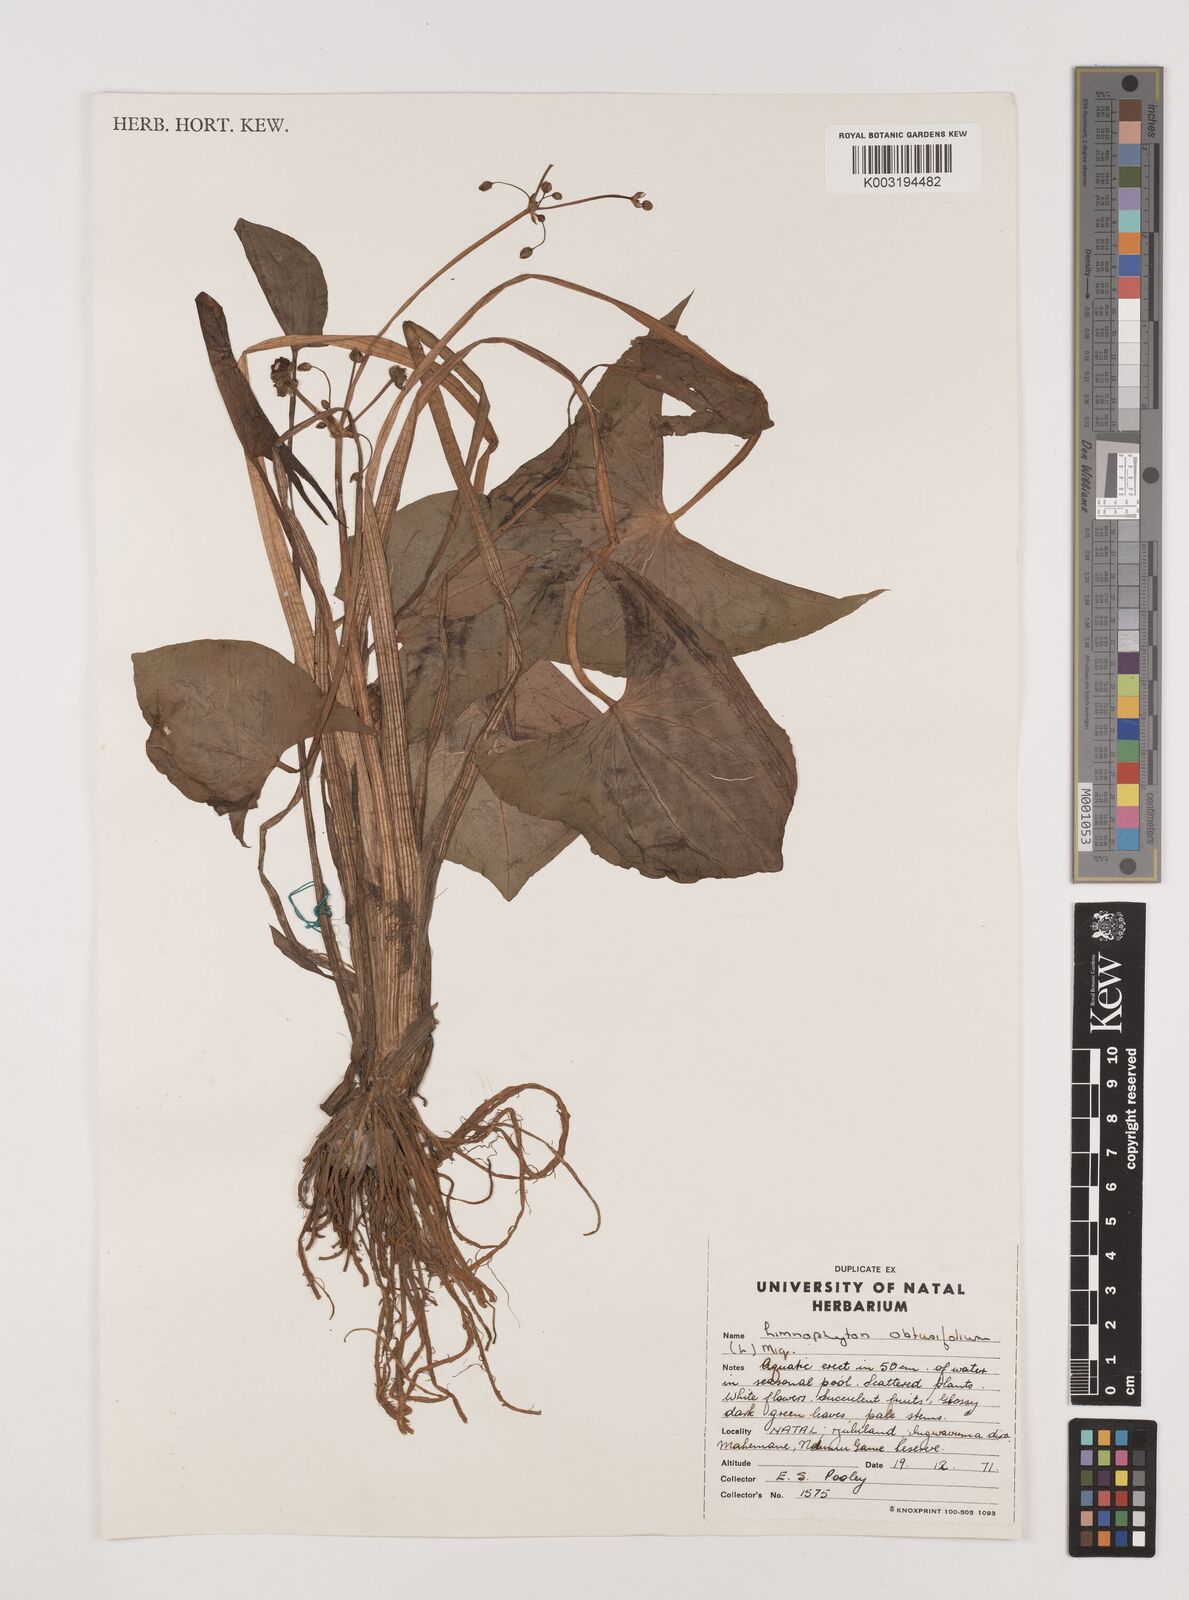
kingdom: Plantae
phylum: Tracheophyta
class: Liliopsida
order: Alismatales
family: Alismataceae
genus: Limnophyton
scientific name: Limnophyton obtusifolium
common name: Arrow head
